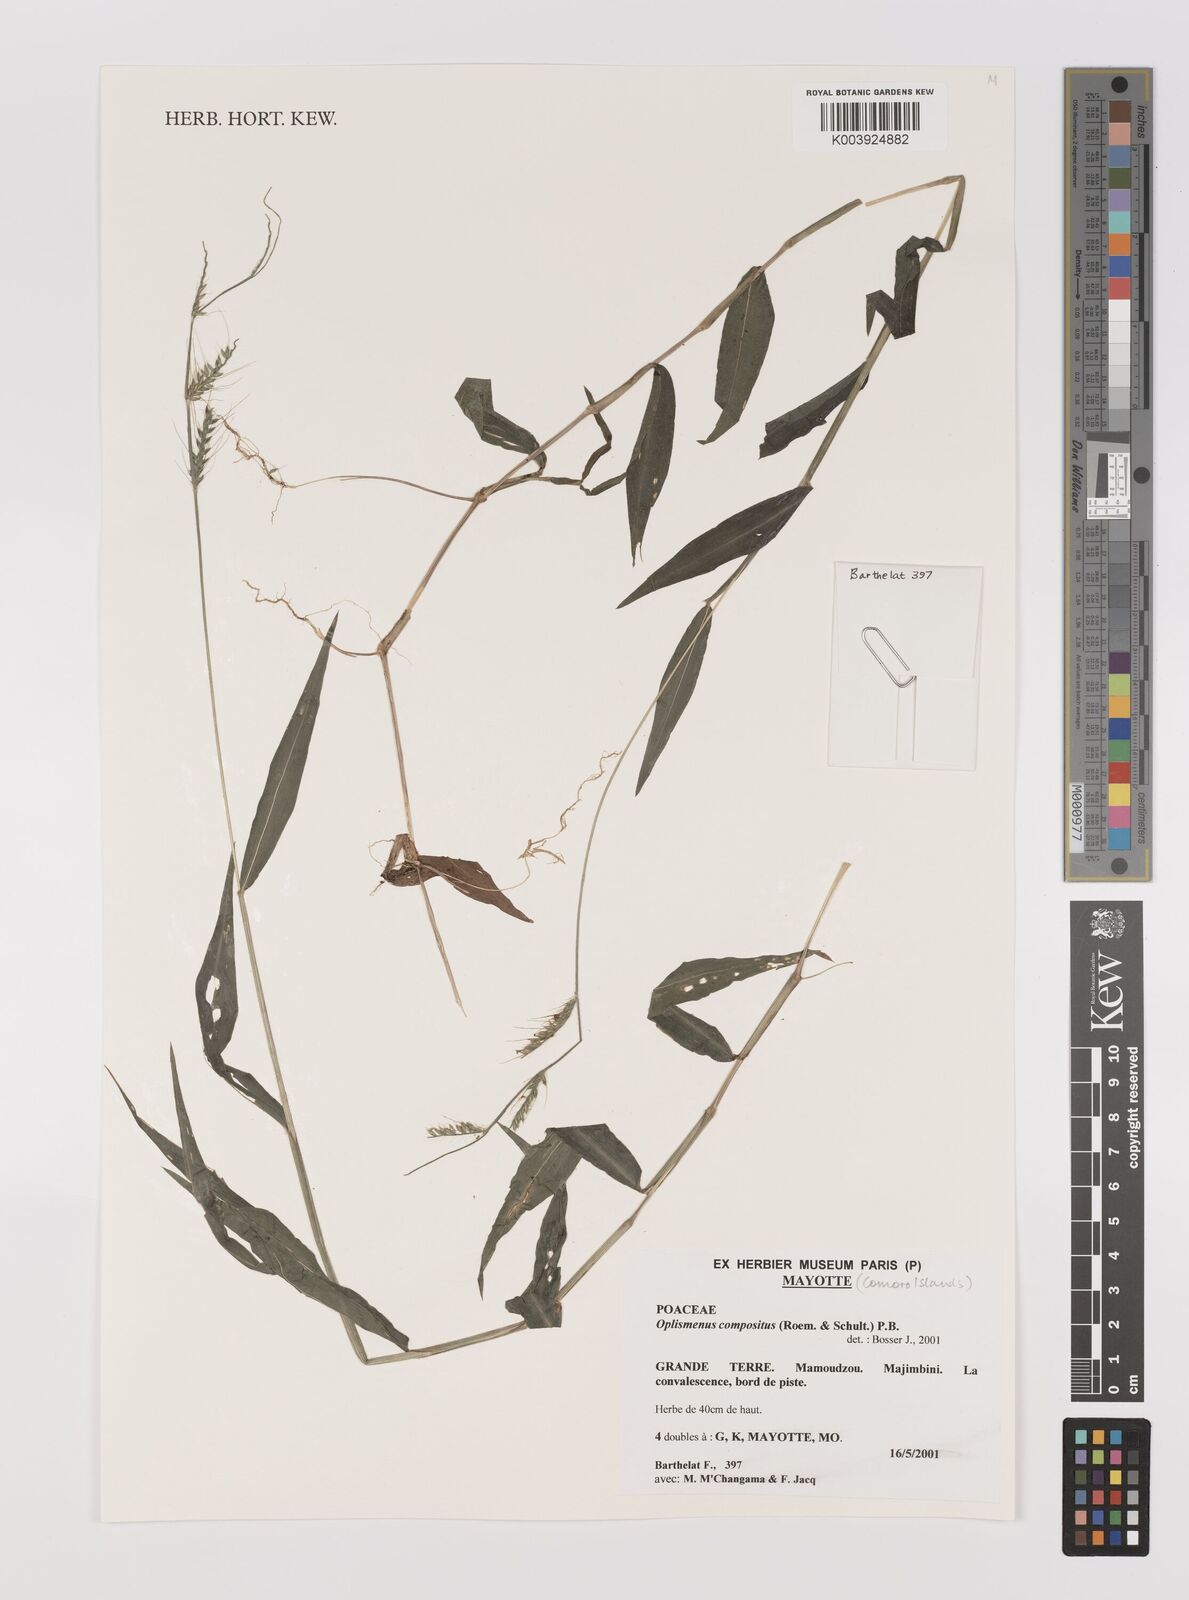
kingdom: Plantae
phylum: Tracheophyta
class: Liliopsida
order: Poales
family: Poaceae
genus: Oplismenus
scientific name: Oplismenus compositus
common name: Running mountain grass
